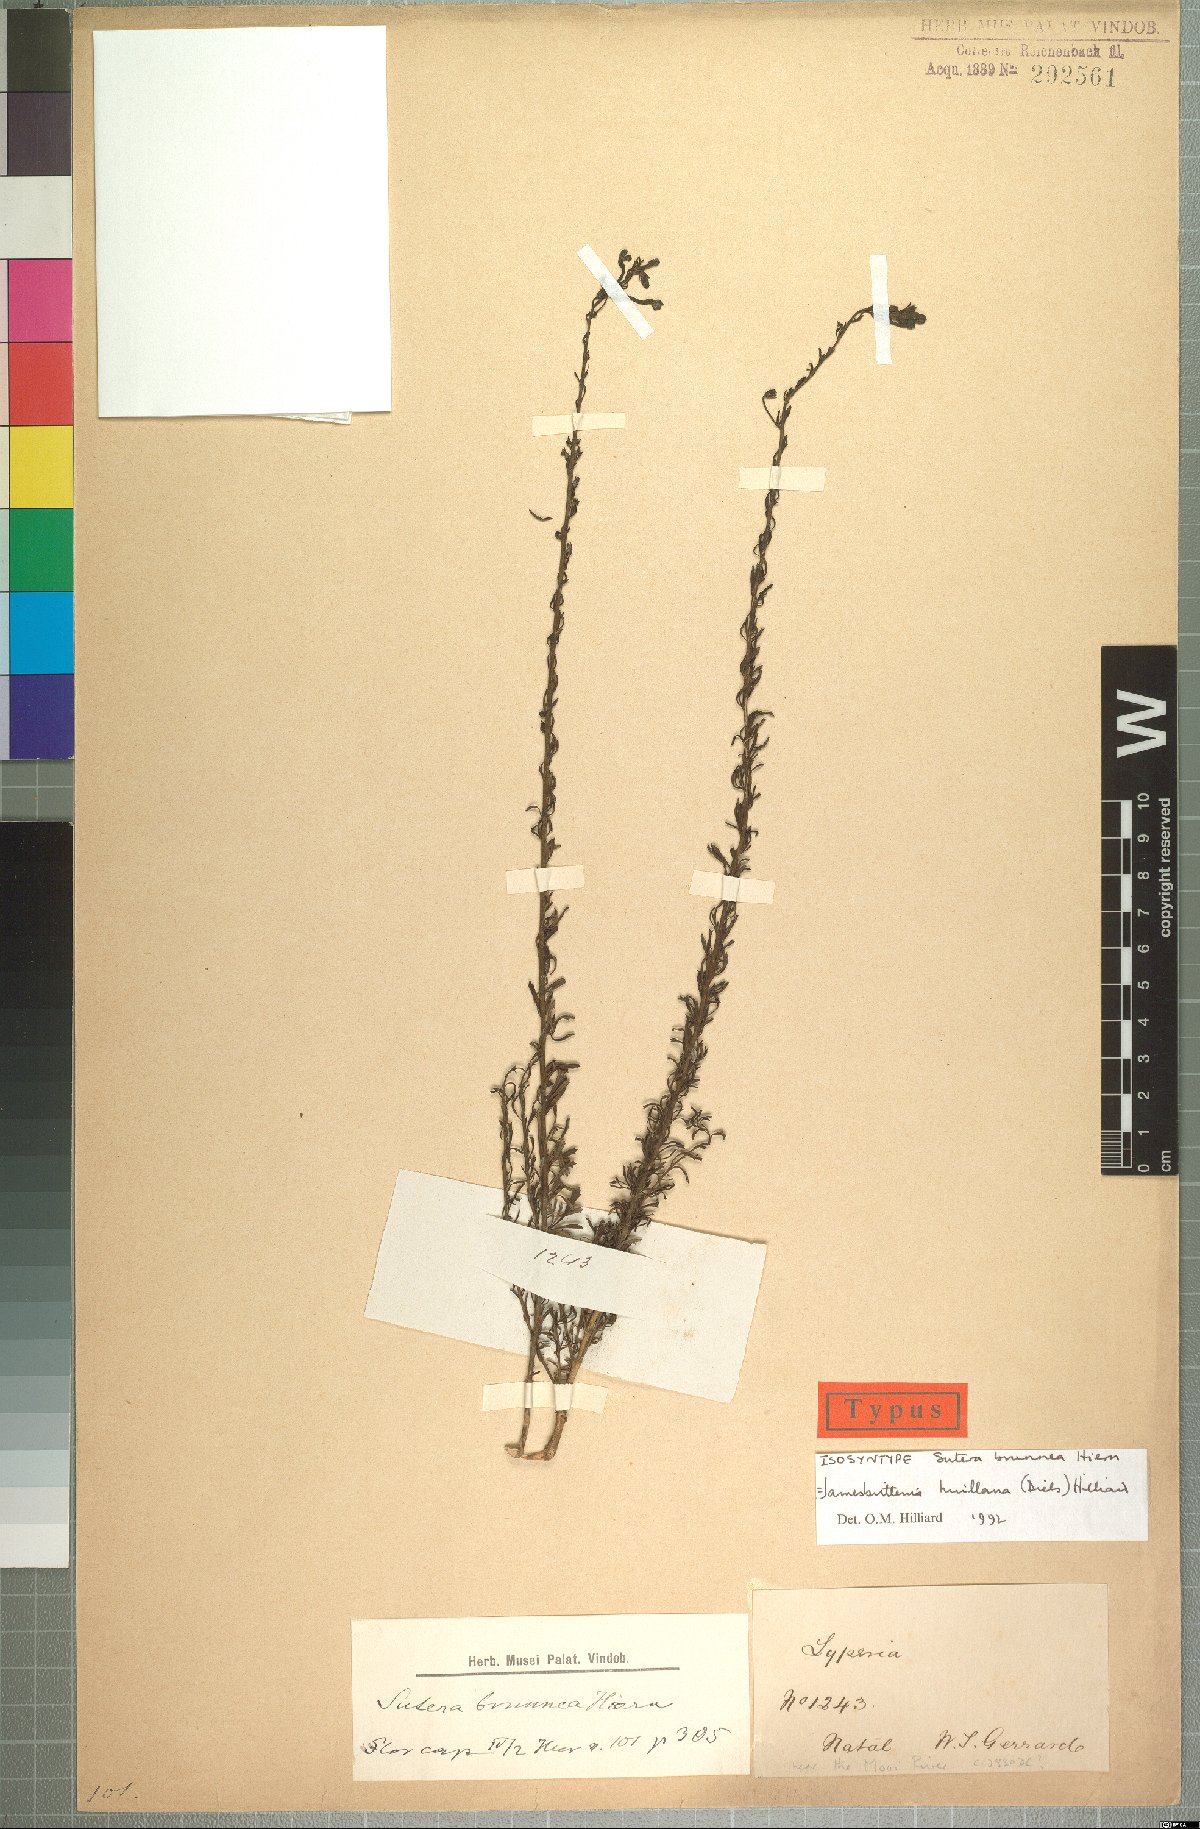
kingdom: Plantae
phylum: Tracheophyta
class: Magnoliopsida
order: Lamiales
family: Scrophulariaceae
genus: Jamesbrittenia
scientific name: Jamesbrittenia huillana
